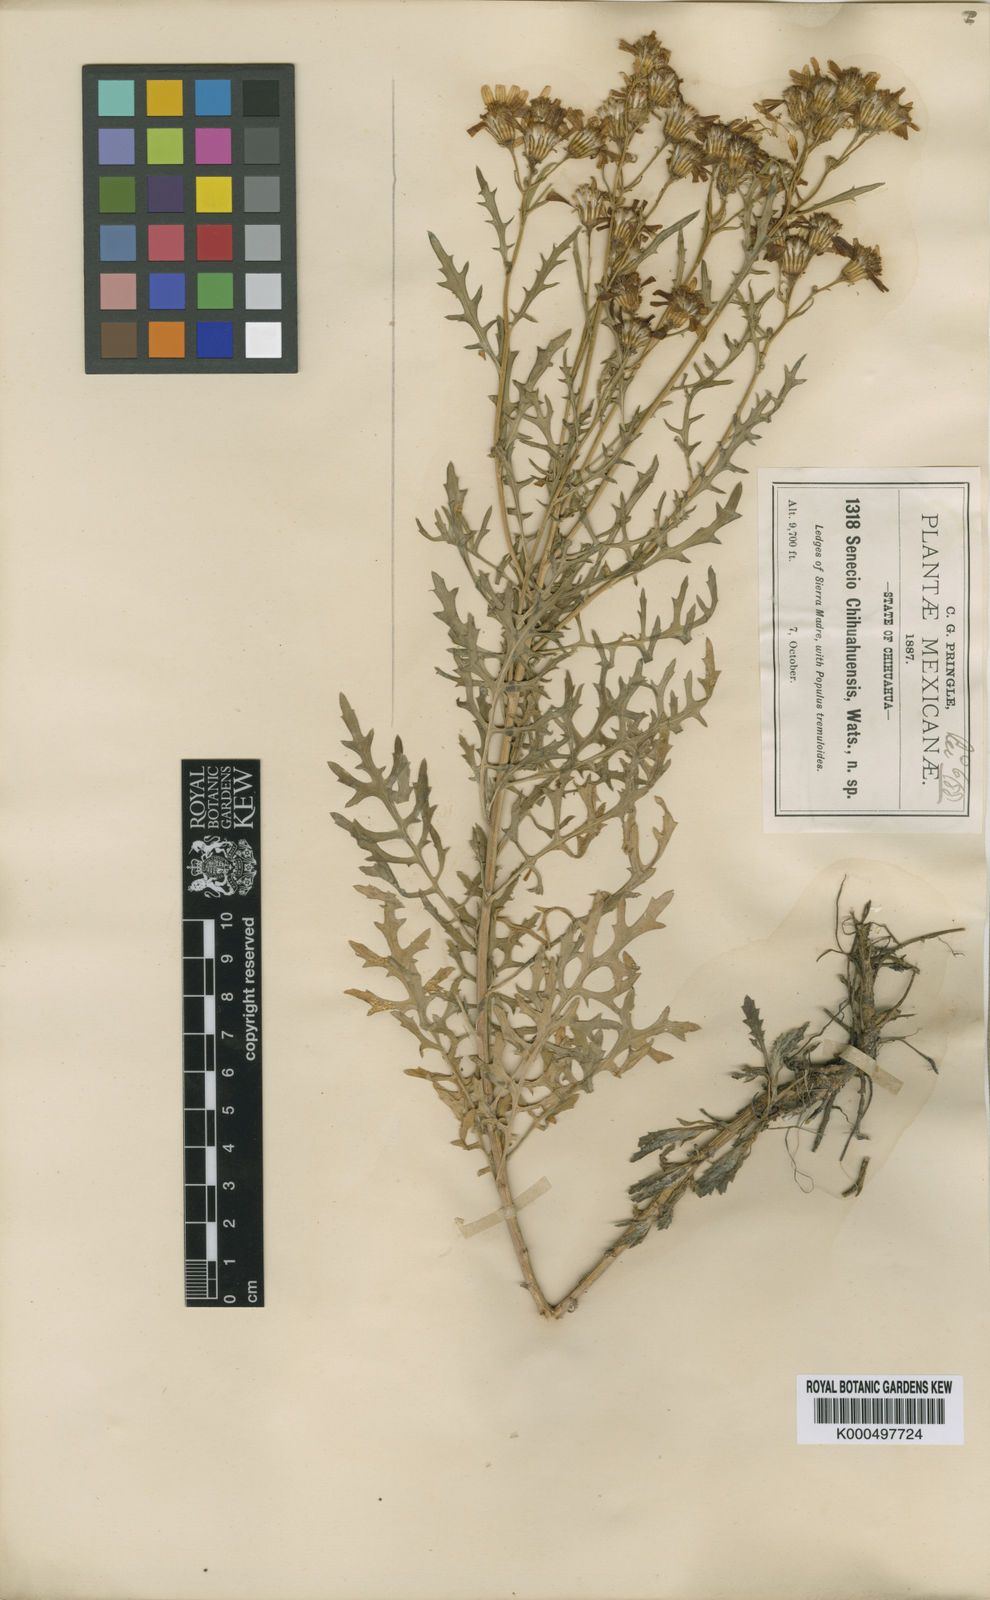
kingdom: Plantae
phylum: Tracheophyta
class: Magnoliopsida
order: Asterales
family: Asteraceae
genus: Senecio
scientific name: Senecio chihuahuensis
